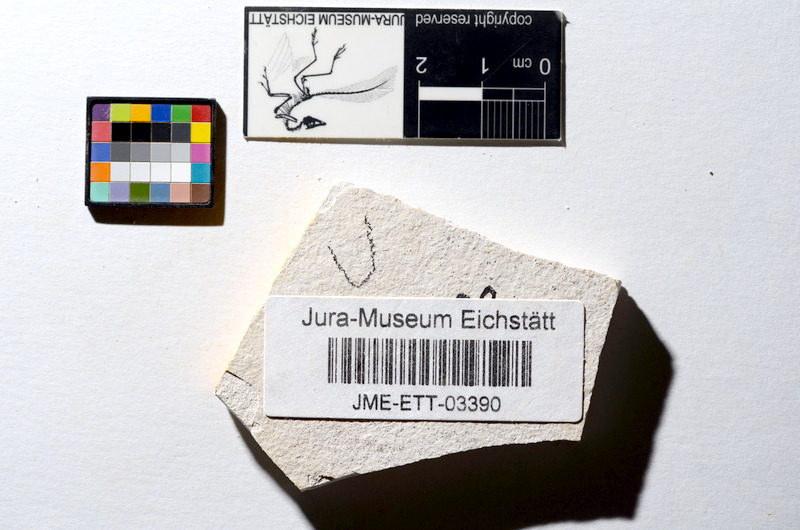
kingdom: Animalia
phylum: Chordata
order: Salmoniformes
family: Orthogonikleithridae
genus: Orthogonikleithrus
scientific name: Orthogonikleithrus hoelli
